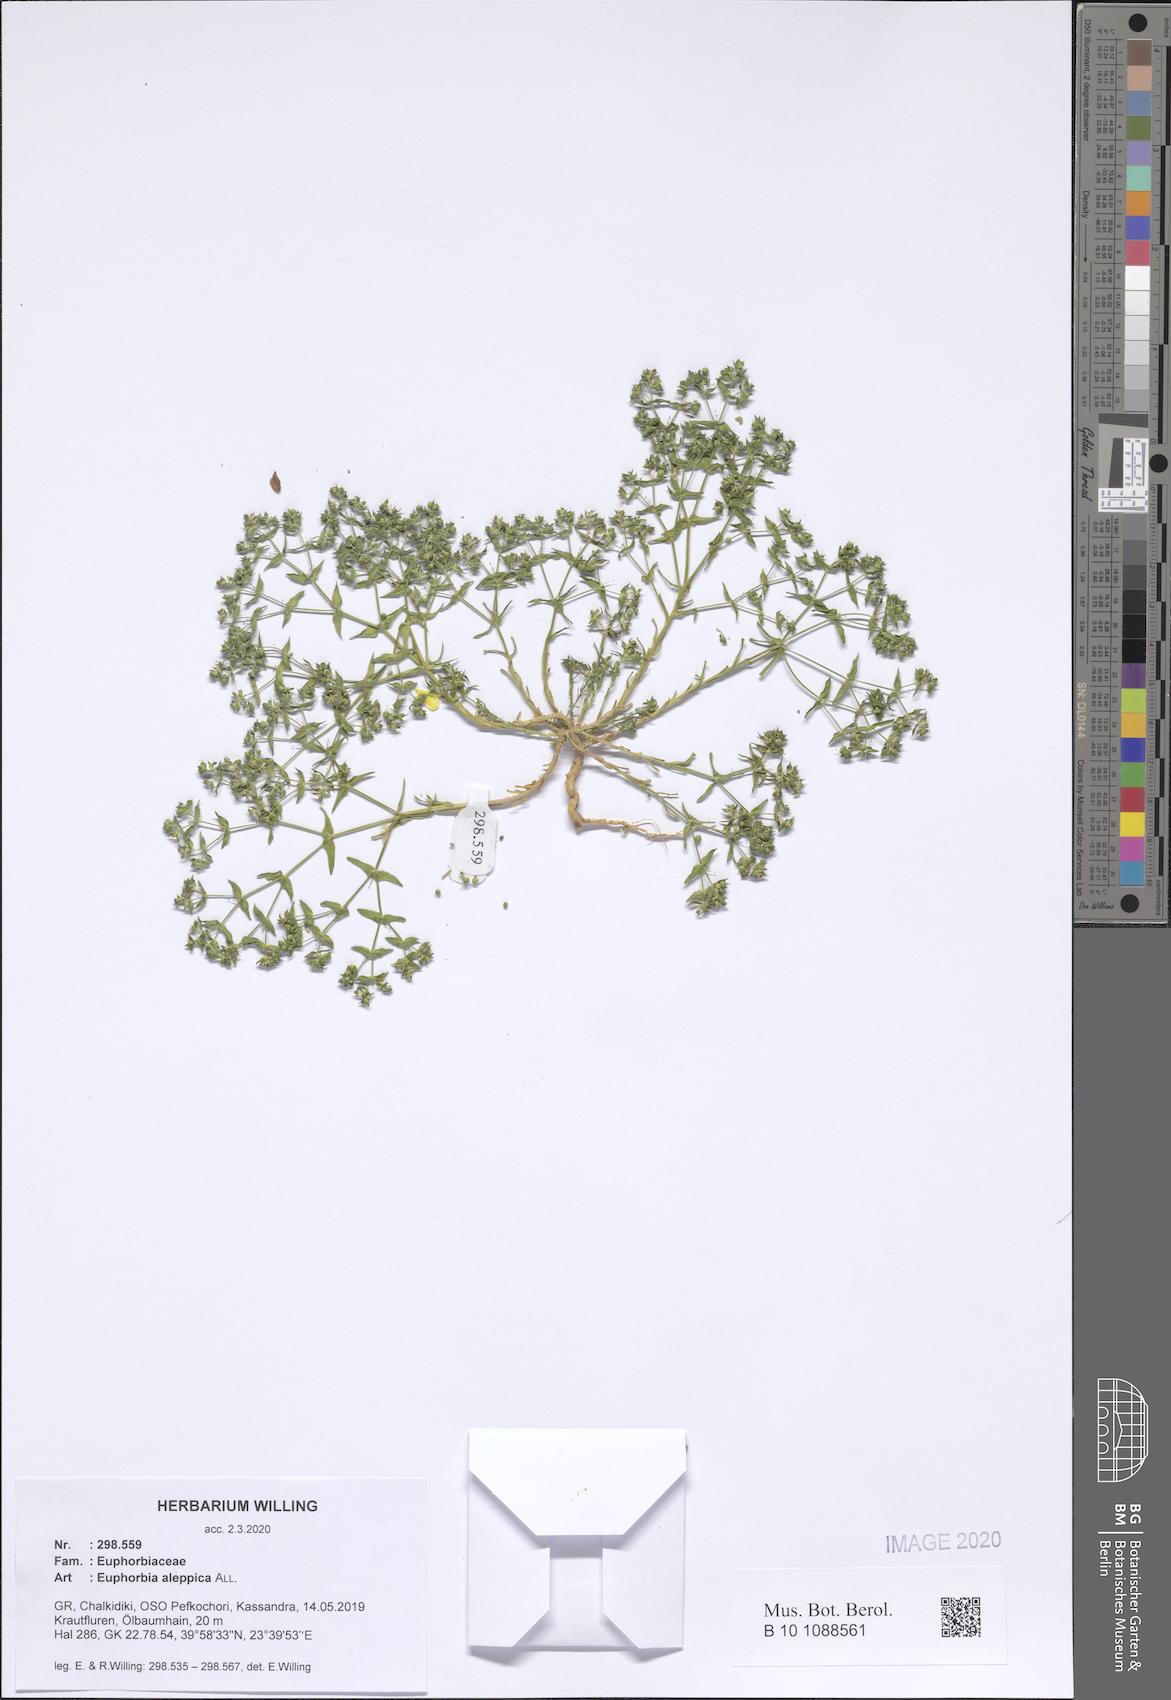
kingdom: Plantae
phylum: Tracheophyta
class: Magnoliopsida
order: Malpighiales
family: Euphorbiaceae
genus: Euphorbia
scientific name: Euphorbia aleppica
